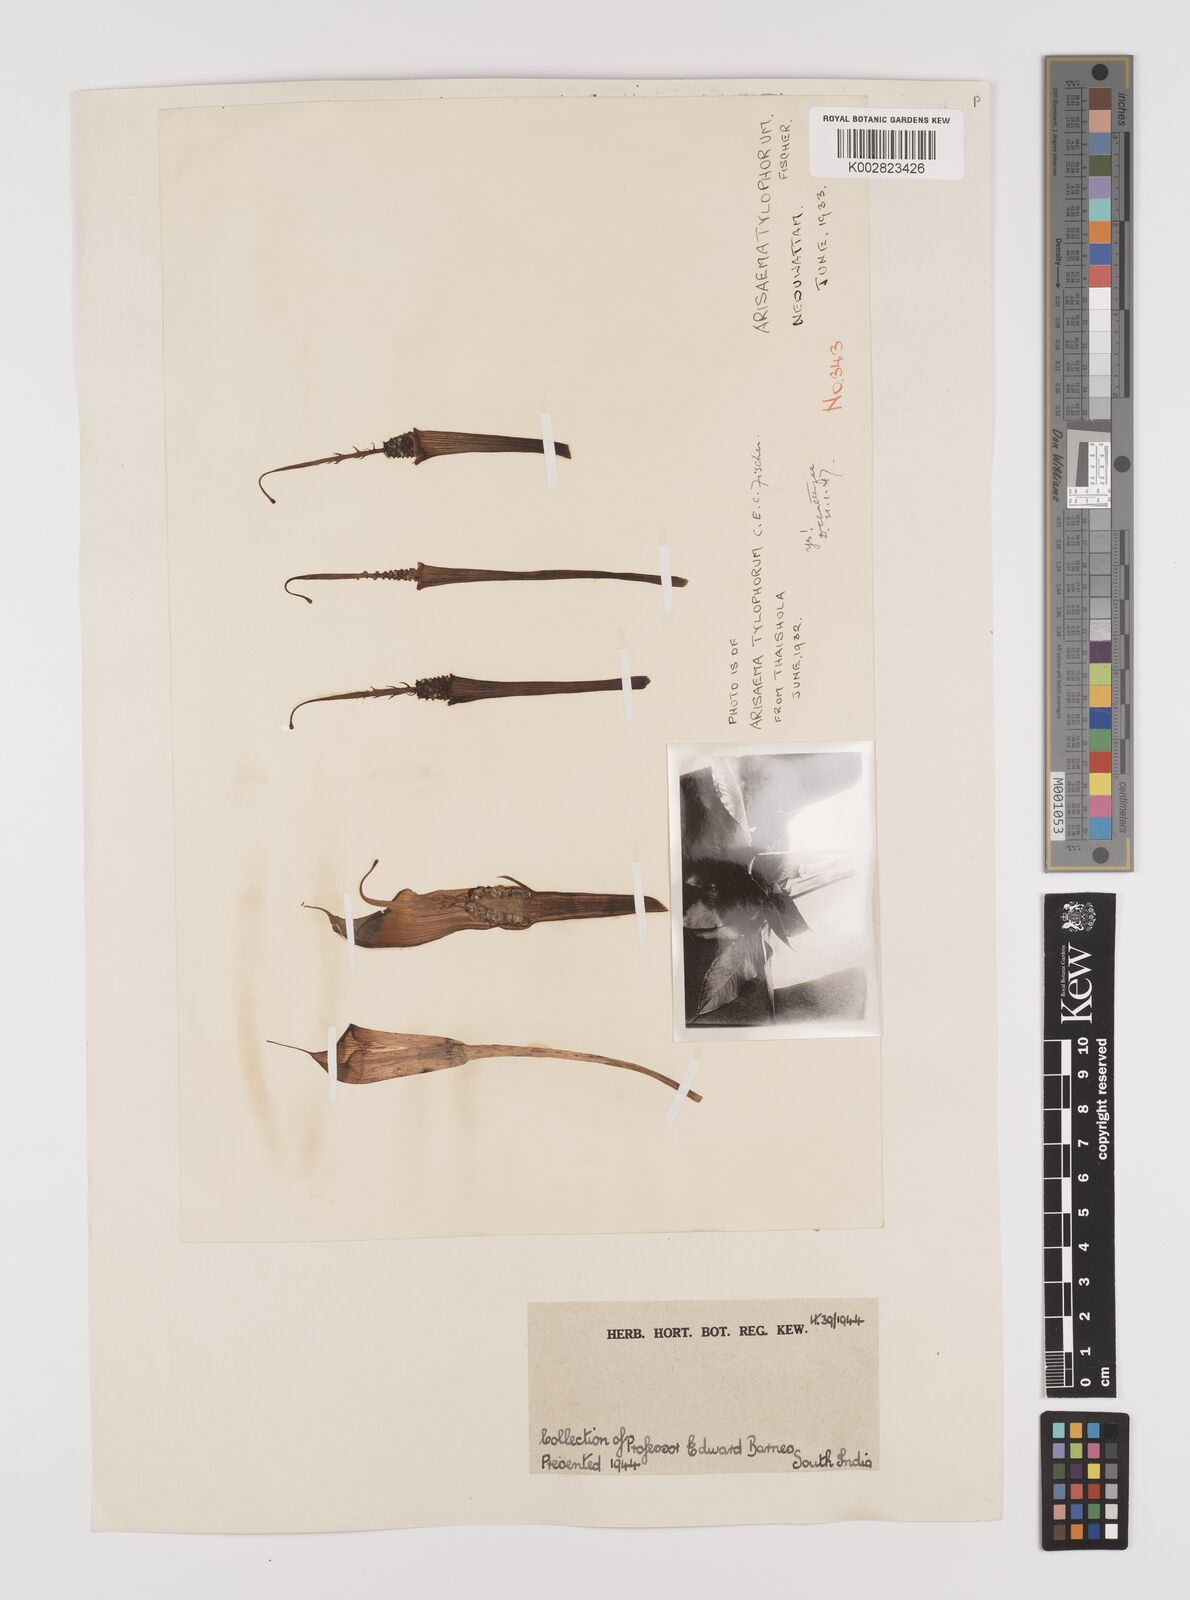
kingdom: Plantae
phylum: Tracheophyta
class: Liliopsida
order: Alismatales
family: Araceae
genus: Arisaema
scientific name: Arisaema barnesii
